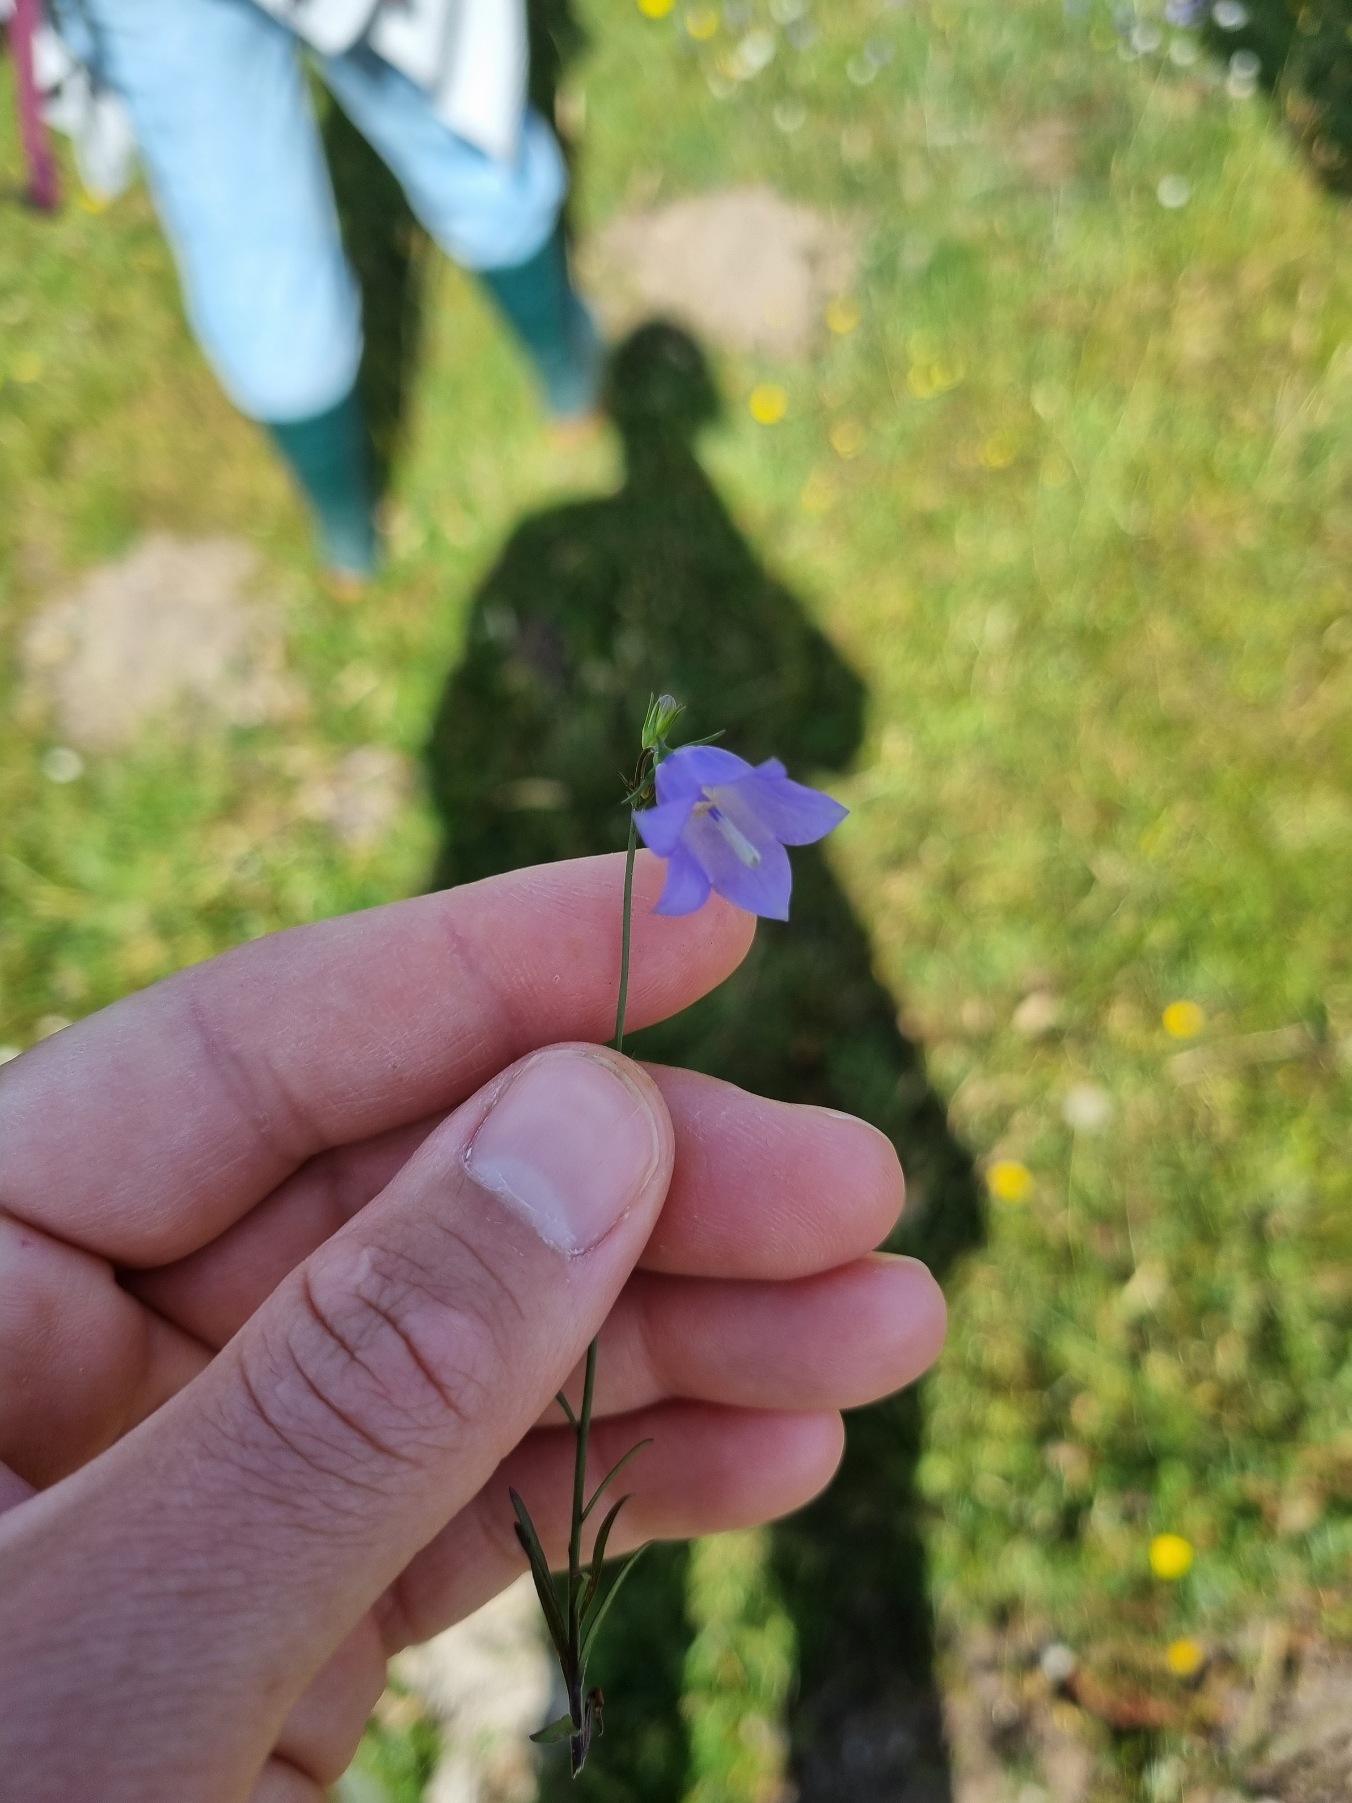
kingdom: Plantae
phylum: Tracheophyta
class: Magnoliopsida
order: Asterales
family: Campanulaceae
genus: Campanula
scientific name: Campanula rotundifolia
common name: Liden klokke
